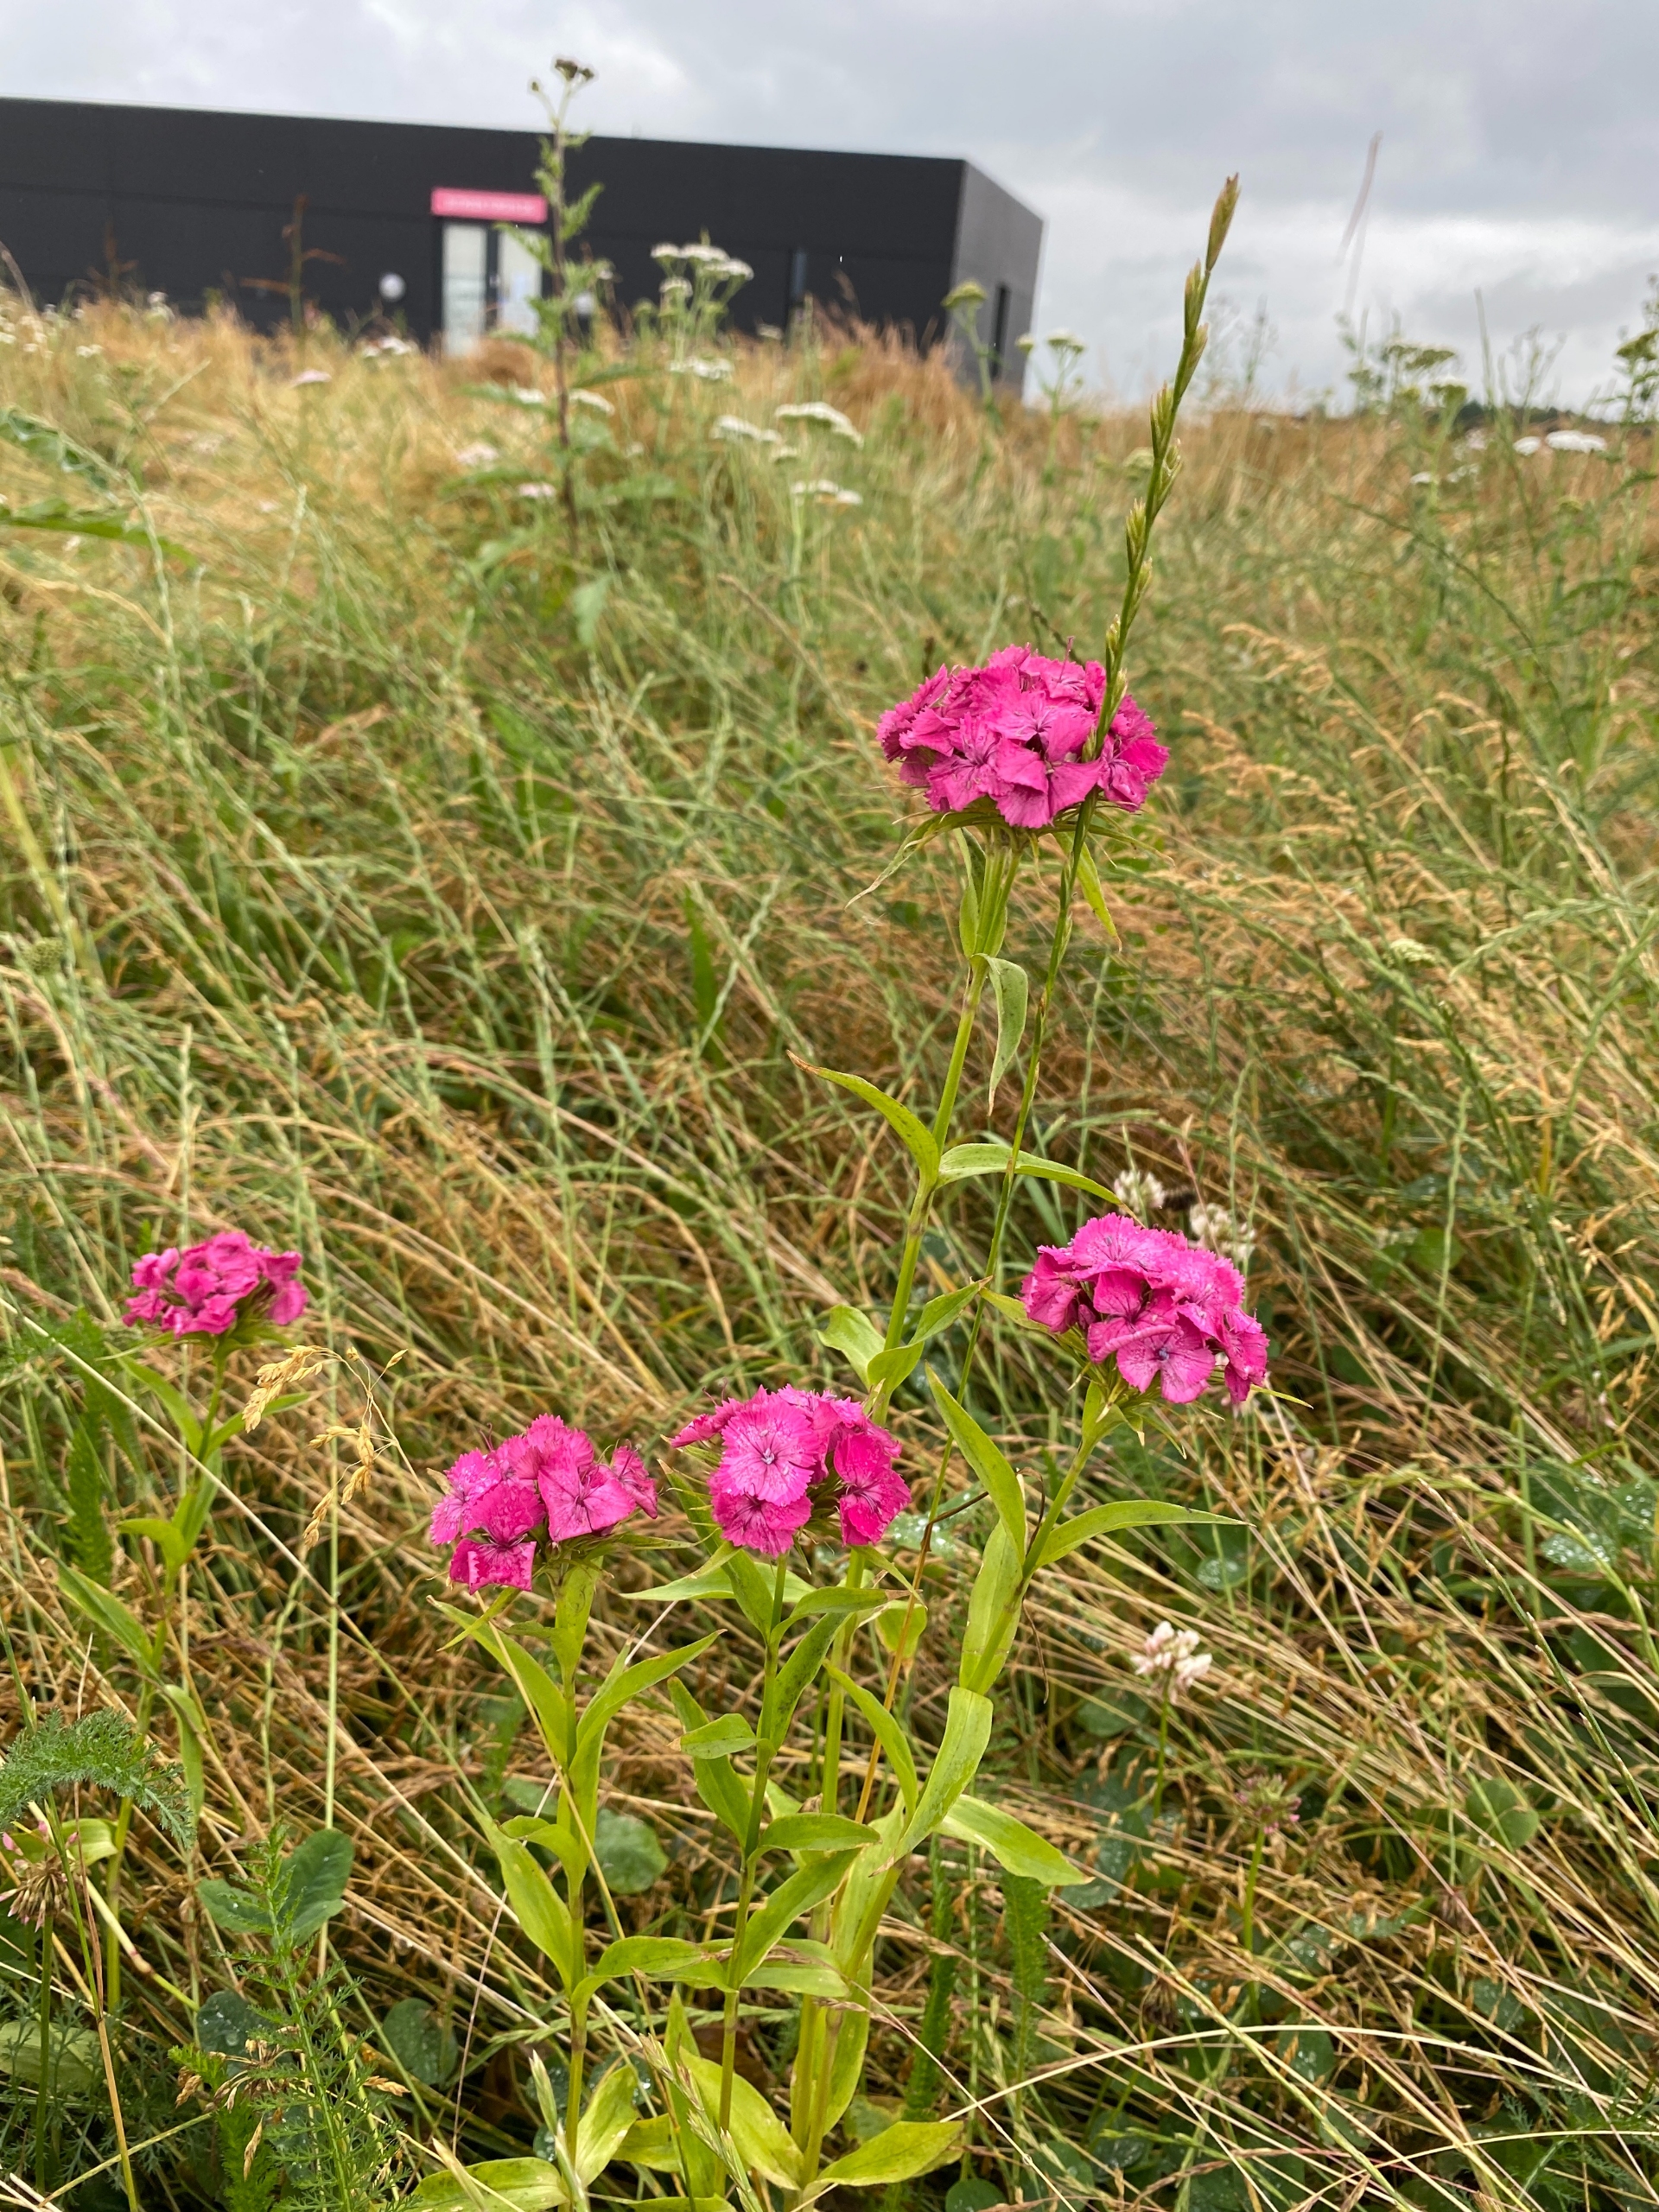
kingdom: Plantae
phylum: Tracheophyta
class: Magnoliopsida
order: Caryophyllales
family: Caryophyllaceae
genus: Dianthus
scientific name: Dianthus barbatus
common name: Studenter-nellike
